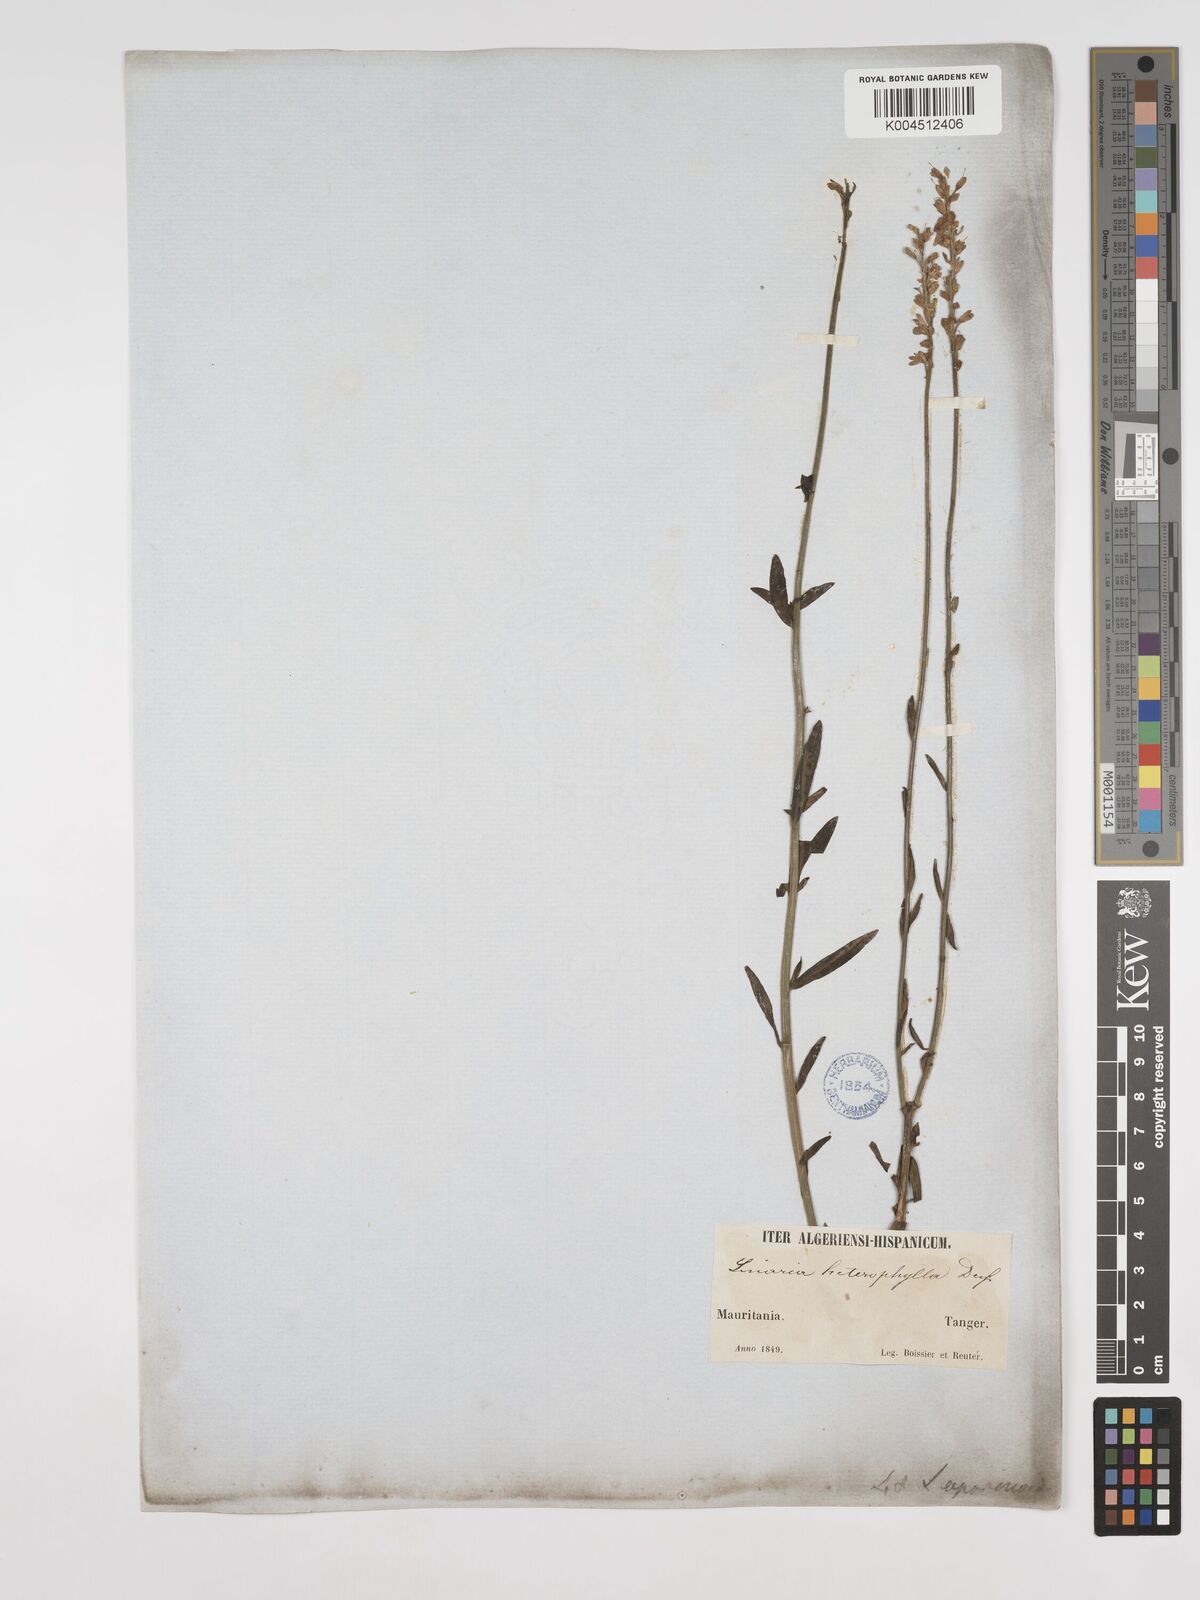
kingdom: Plantae
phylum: Tracheophyta
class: Magnoliopsida
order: Lamiales
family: Plantaginaceae
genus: Linaria
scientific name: Linaria multicaulis
